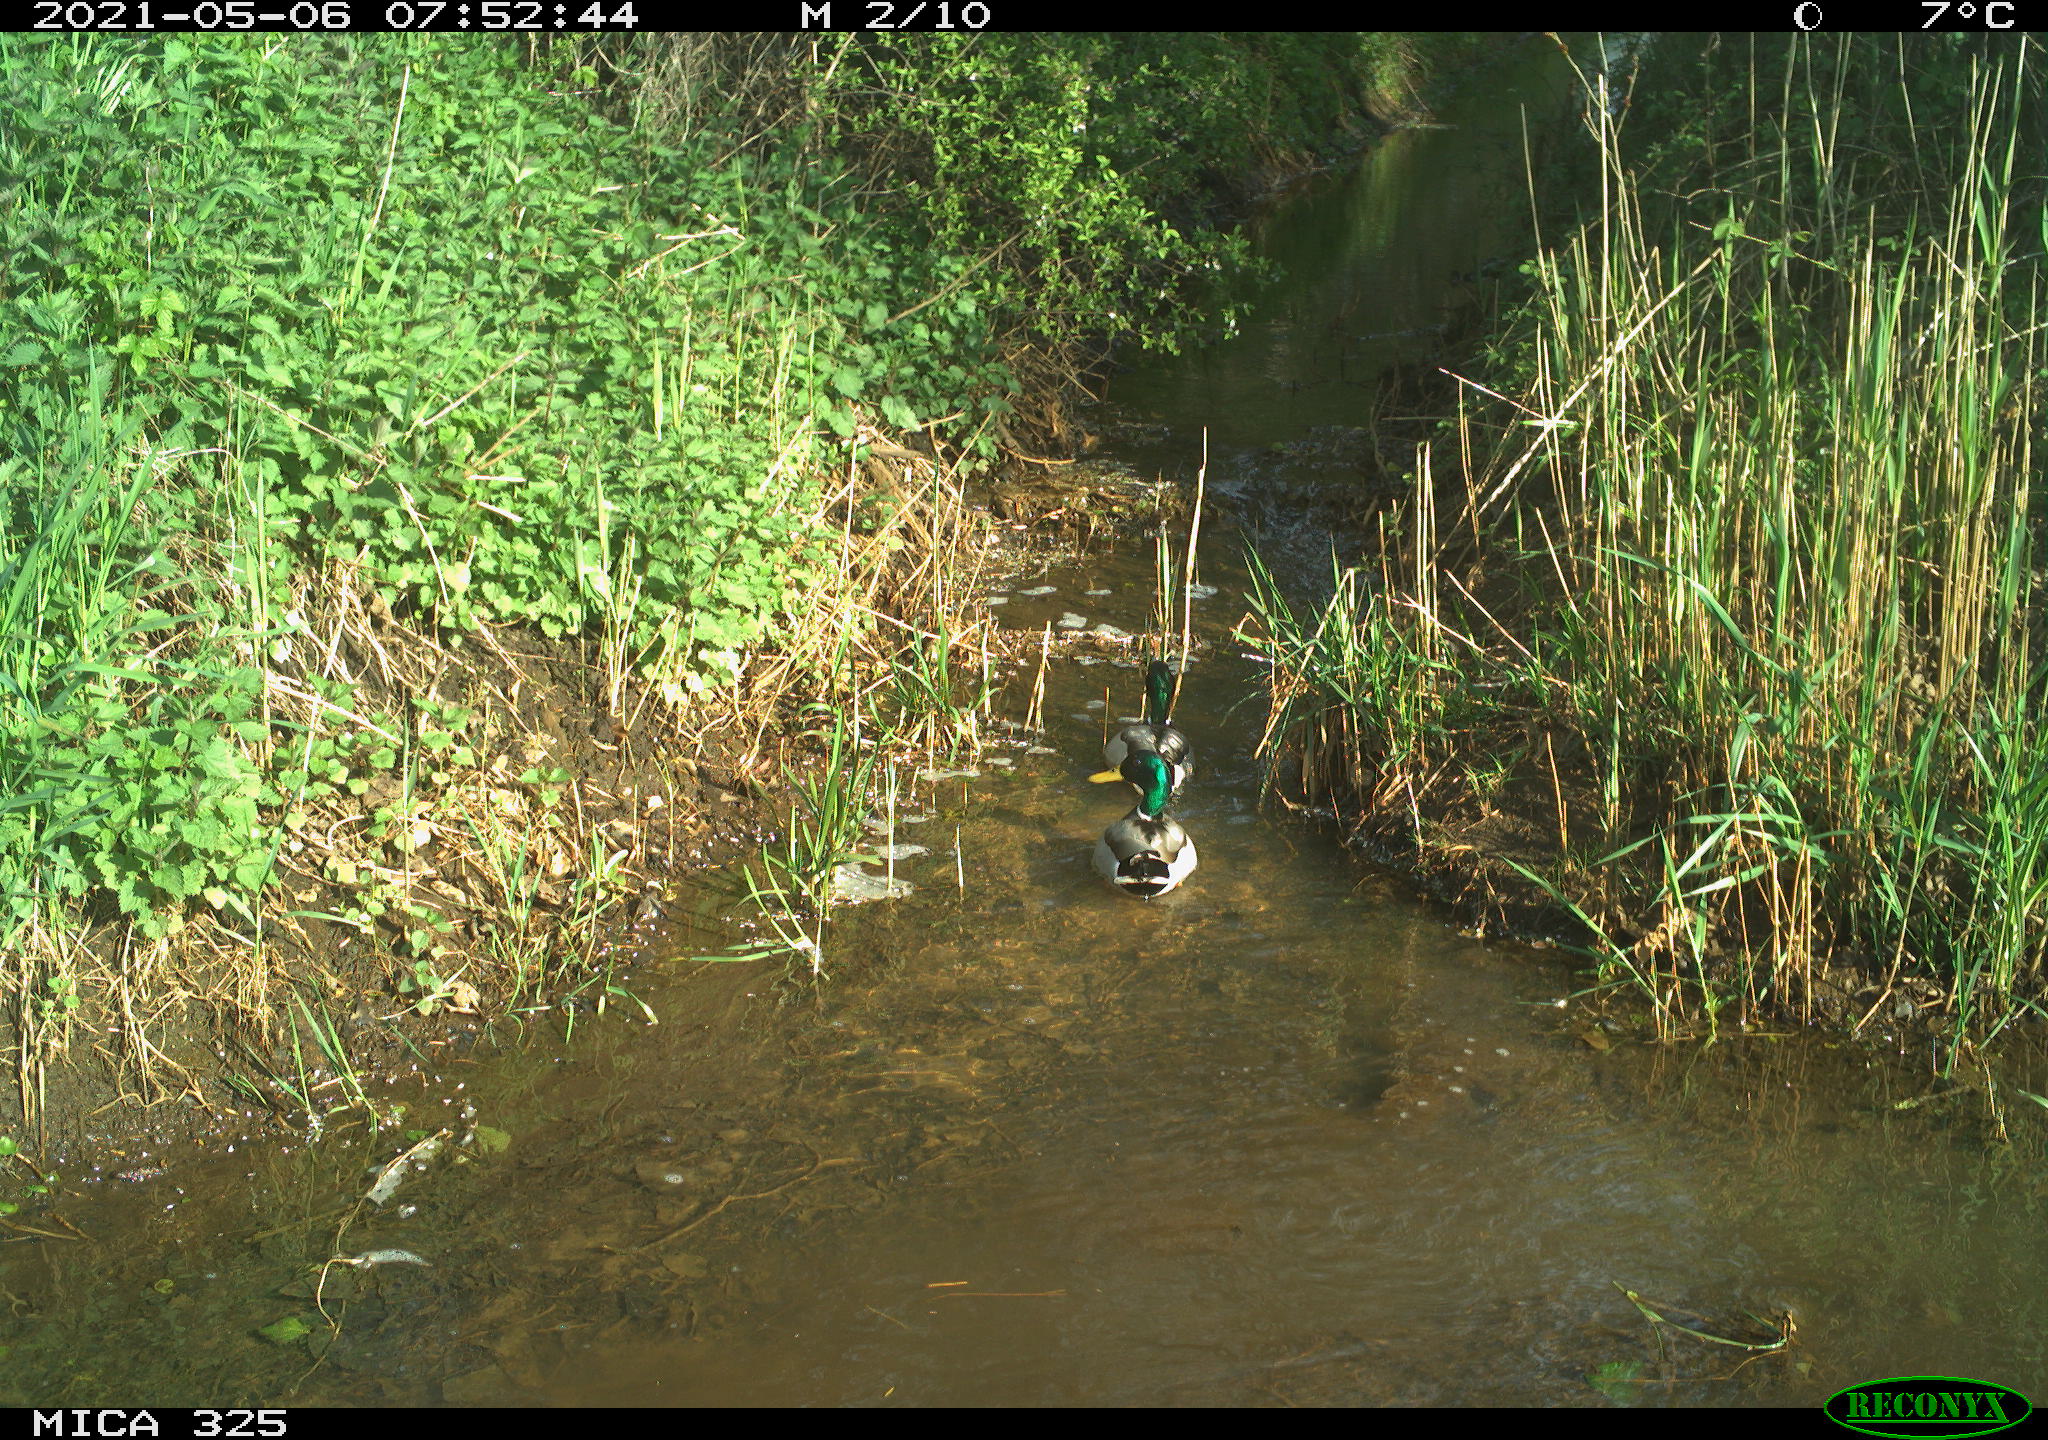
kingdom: Animalia
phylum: Chordata
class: Aves
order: Anseriformes
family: Anatidae
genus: Anas
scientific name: Anas platyrhynchos
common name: Mallard
